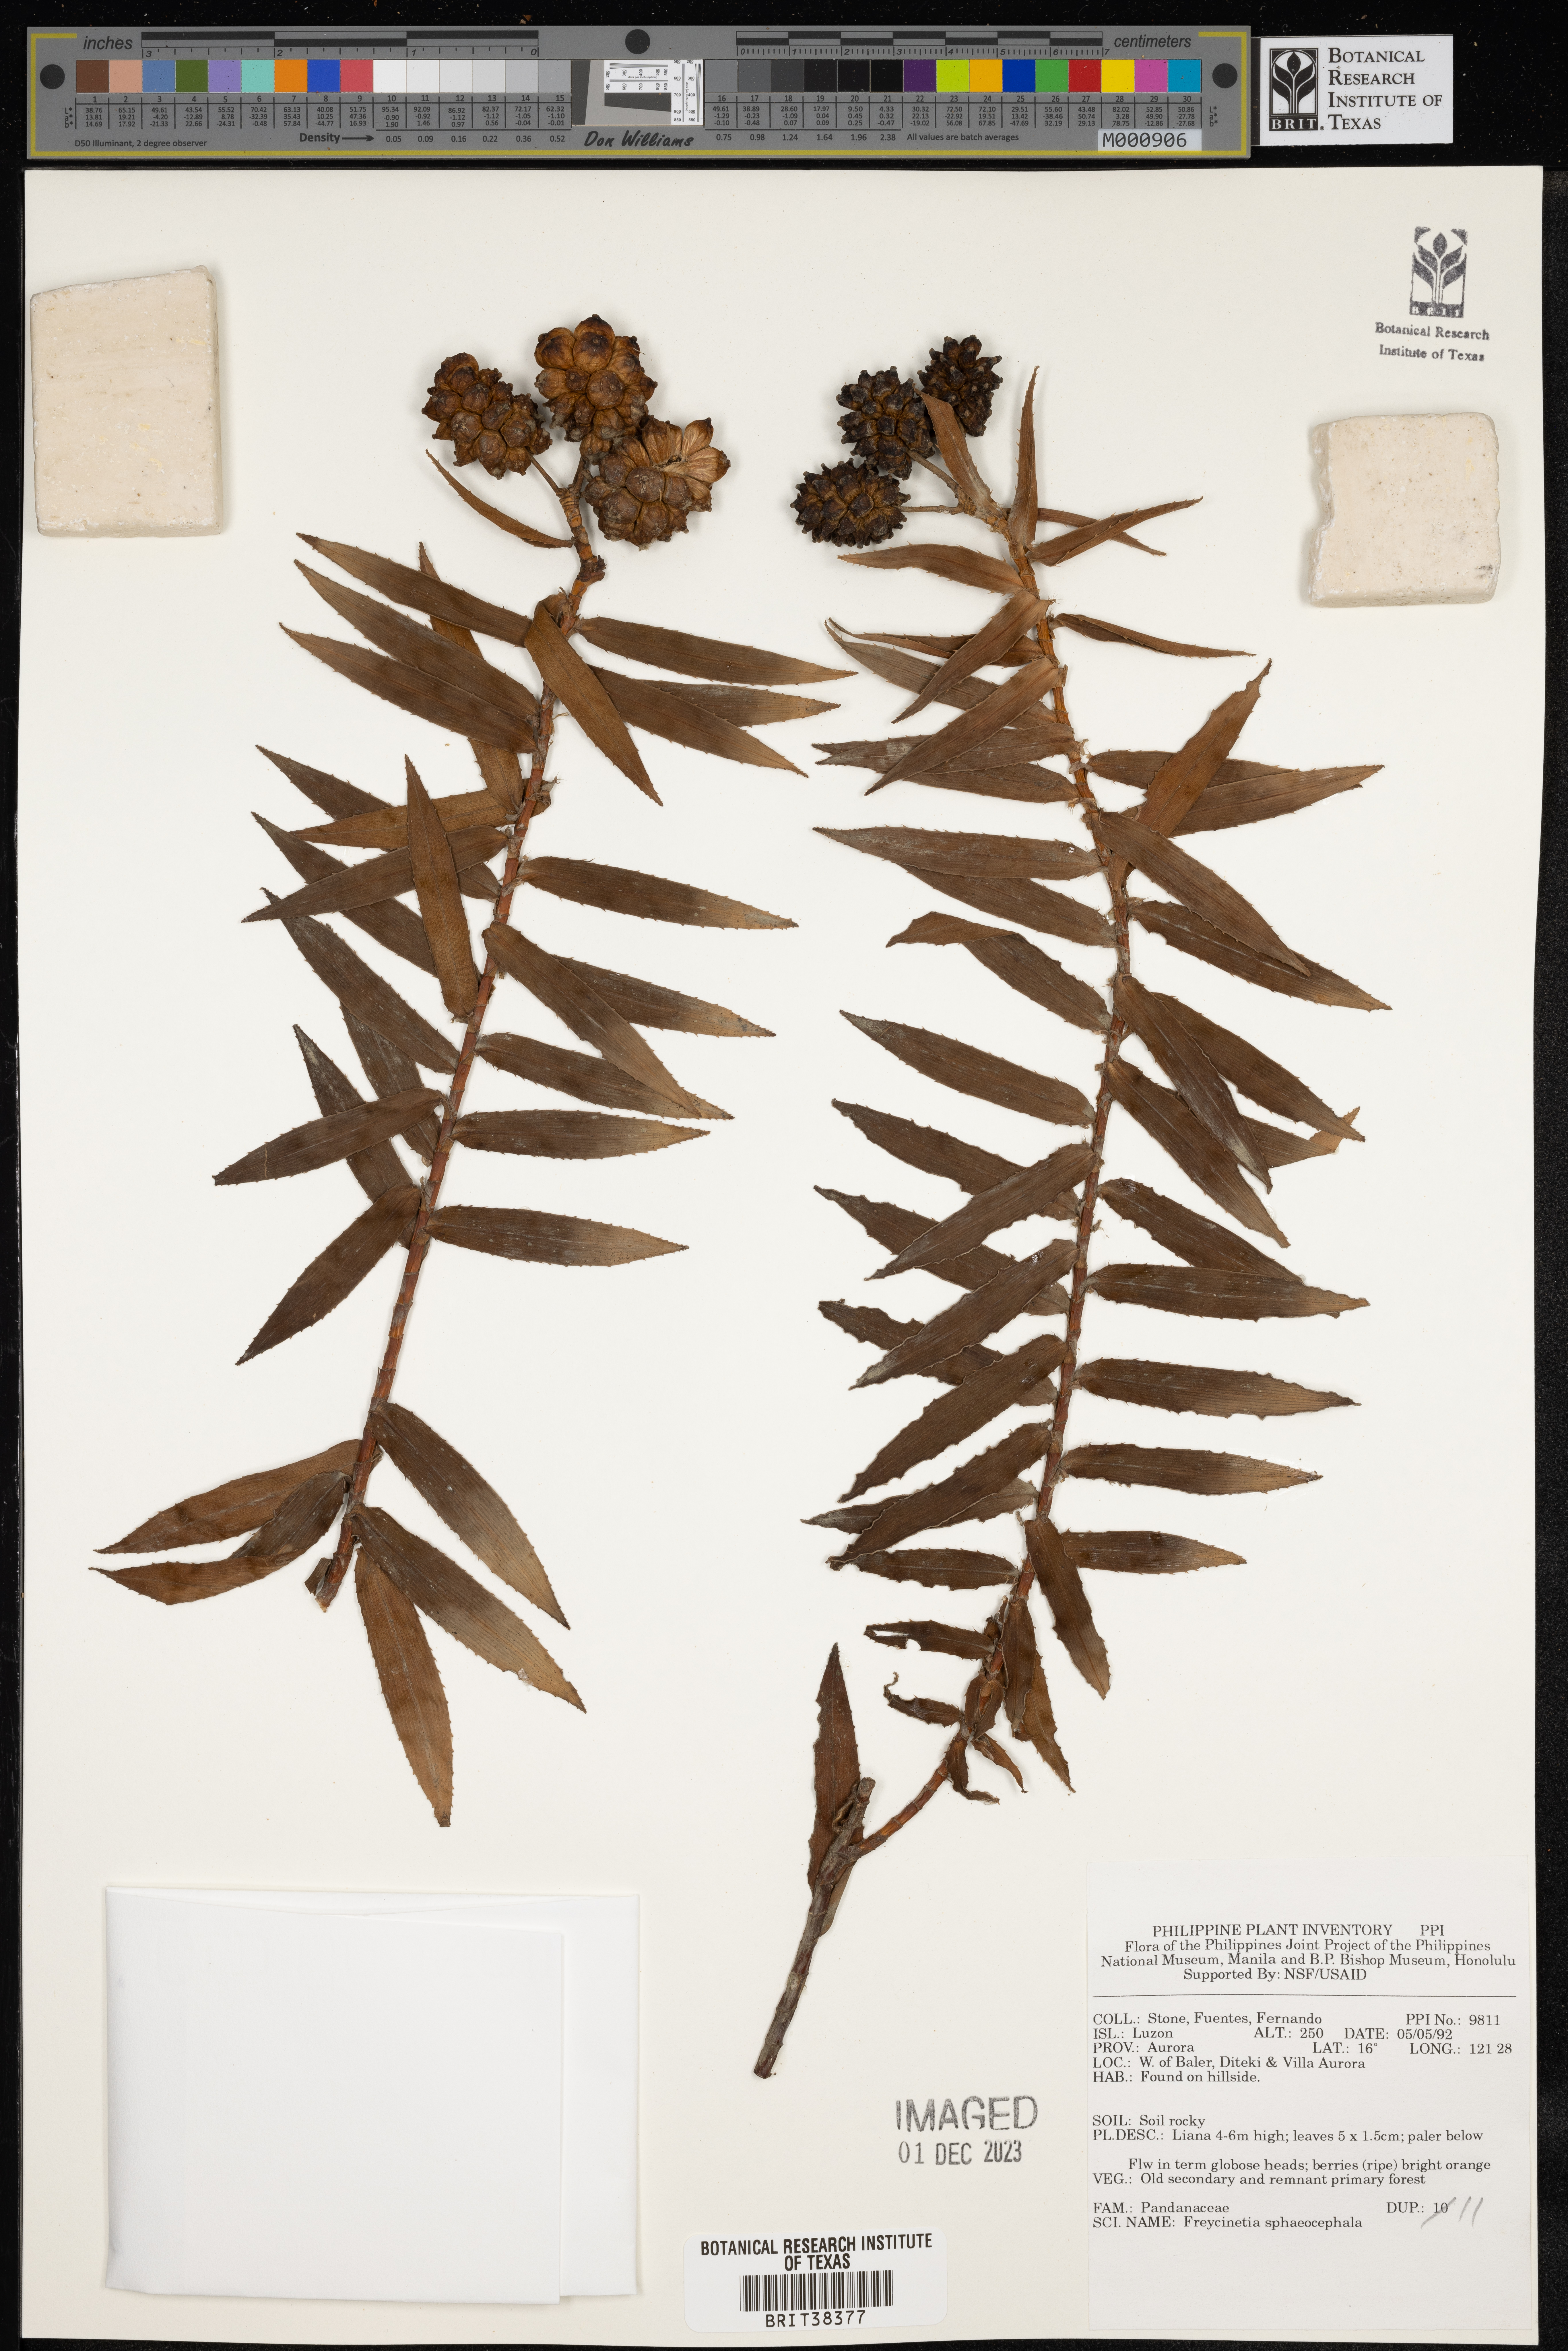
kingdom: Plantae
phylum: Tracheophyta
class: Liliopsida
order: Pandanales
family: Pandanaceae
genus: Freycinetia
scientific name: Freycinetia sphaerocephala
